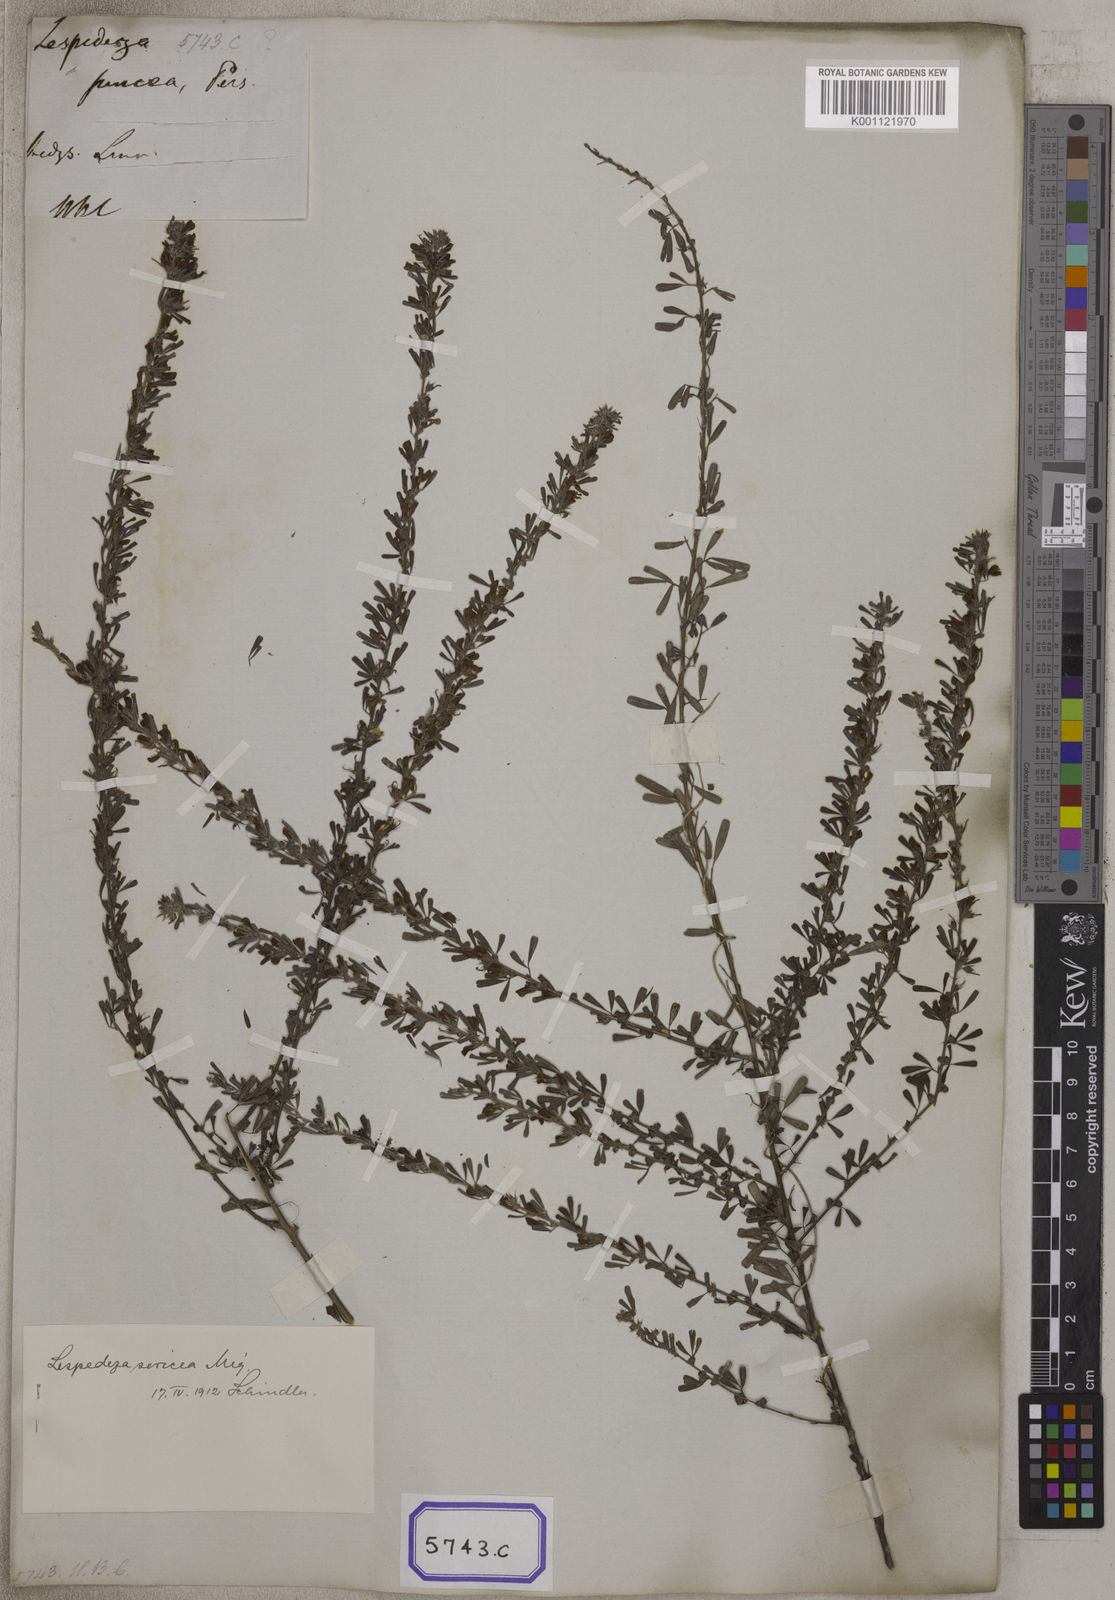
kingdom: Plantae
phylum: Tracheophyta
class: Magnoliopsida
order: Fabales
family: Fabaceae
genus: Indigofera
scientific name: Indigofera aspalathoides
